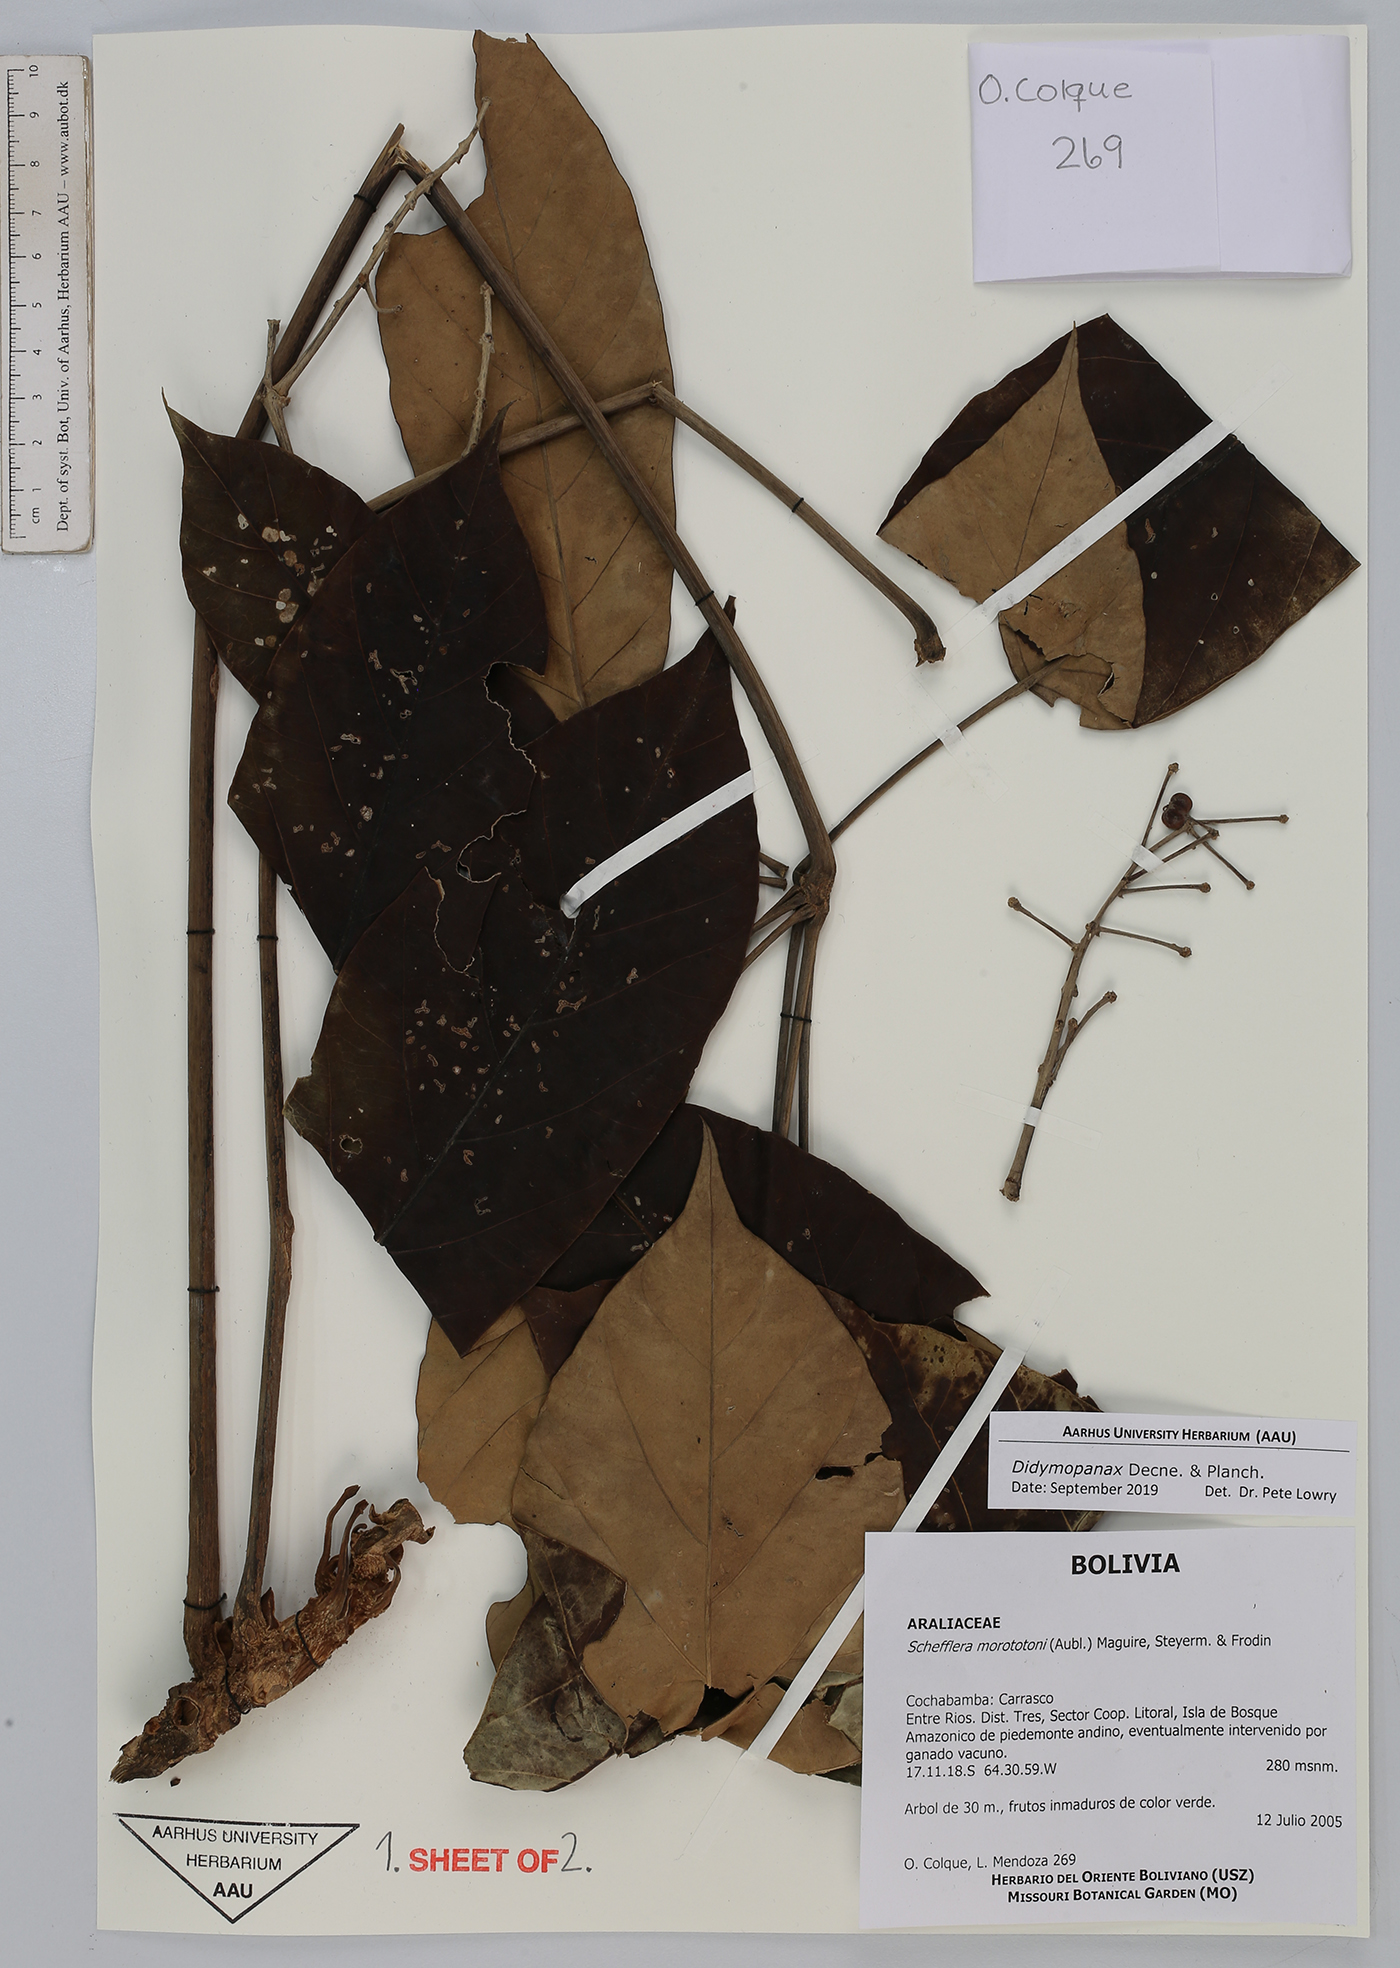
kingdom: Plantae
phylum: Tracheophyta
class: Magnoliopsida
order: Apiales
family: Araliaceae
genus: Didymopanax
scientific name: Didymopanax
